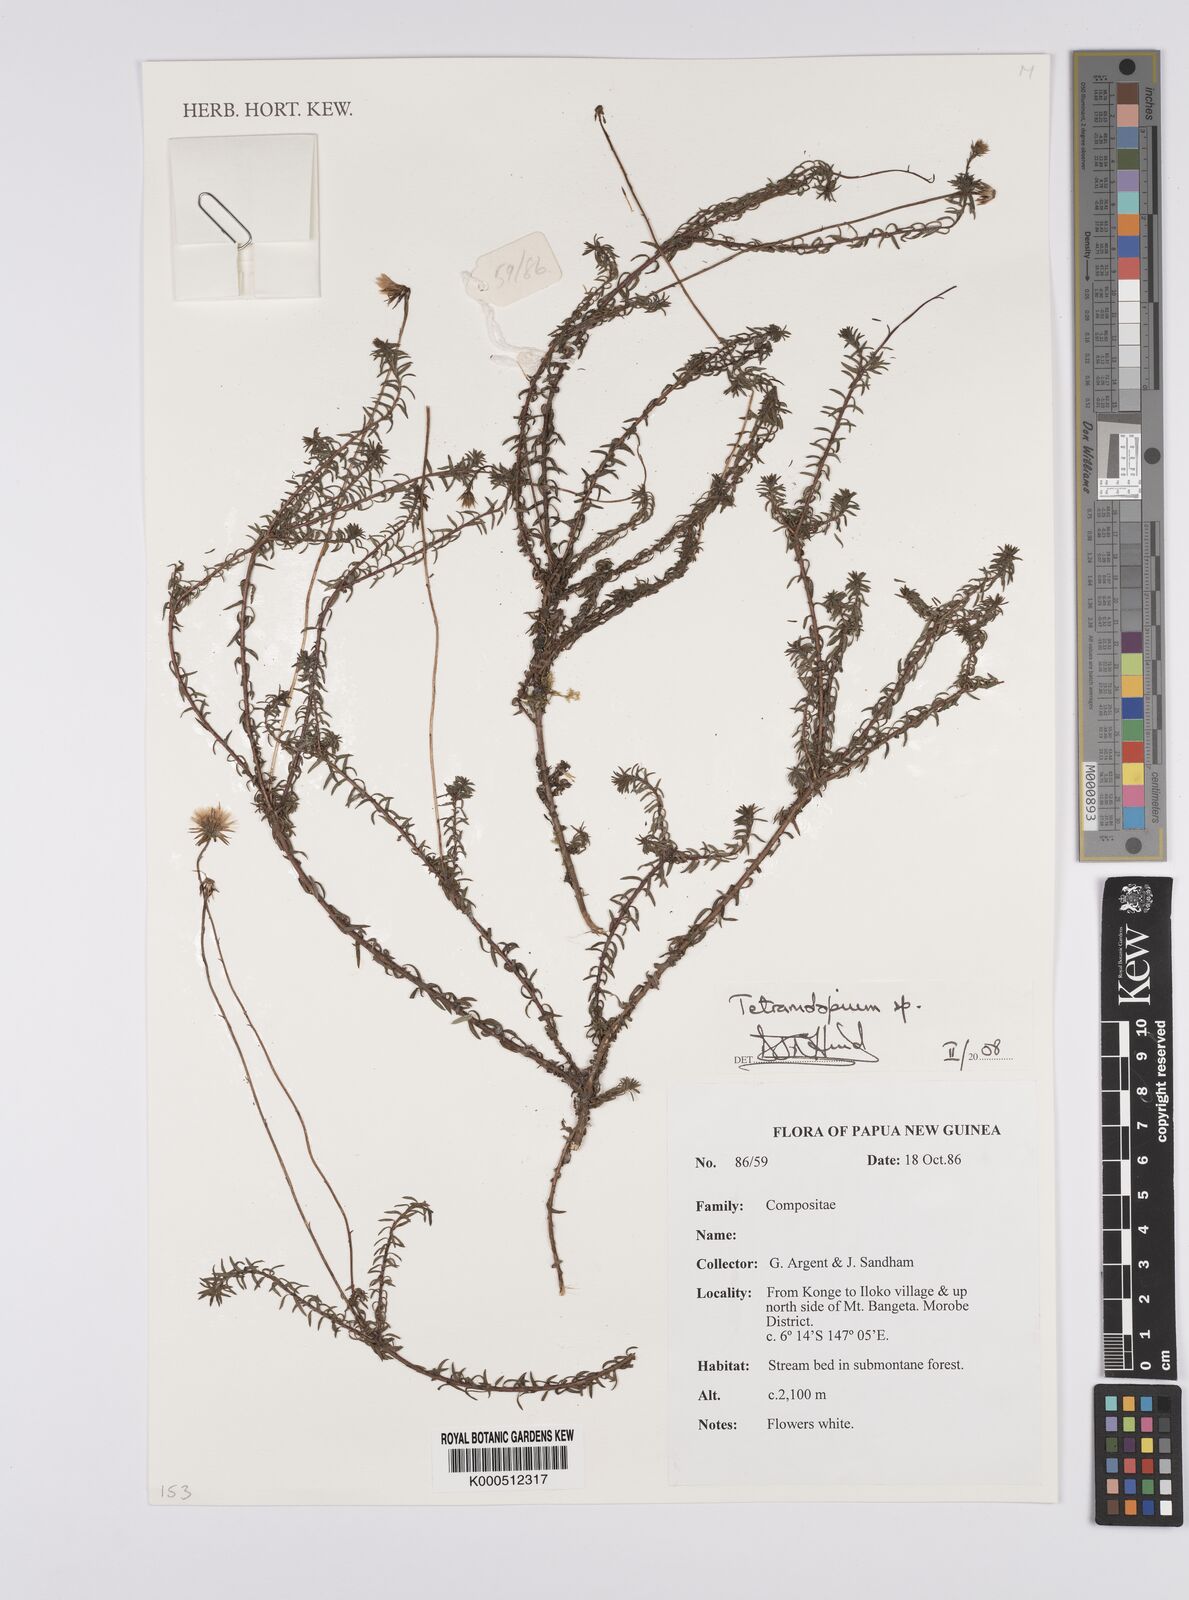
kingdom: Plantae
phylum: Tracheophyta
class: Magnoliopsida
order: Asterales
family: Asteraceae
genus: Tetramolopium
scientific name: Tetramolopium
